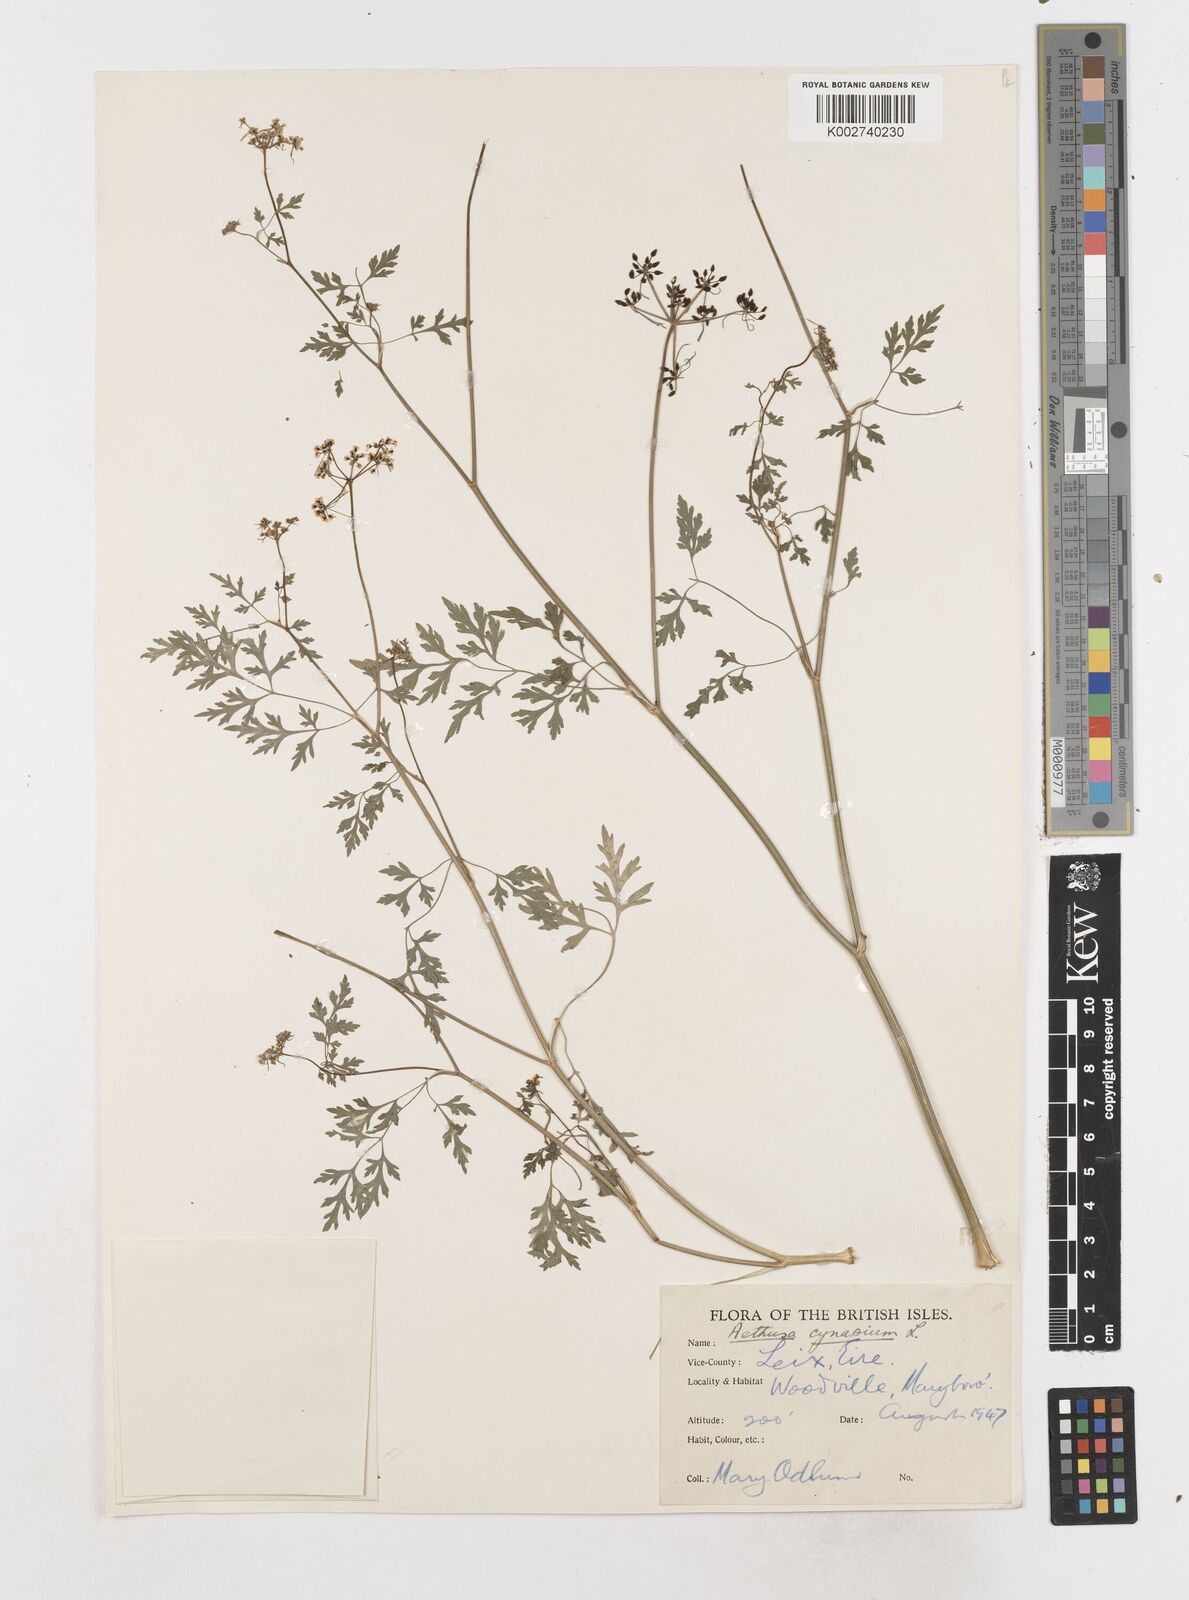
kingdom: Plantae
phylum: Tracheophyta
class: Magnoliopsida
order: Apiales
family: Apiaceae
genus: Aethusa
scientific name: Aethusa cynapium
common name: Fool's parsley
